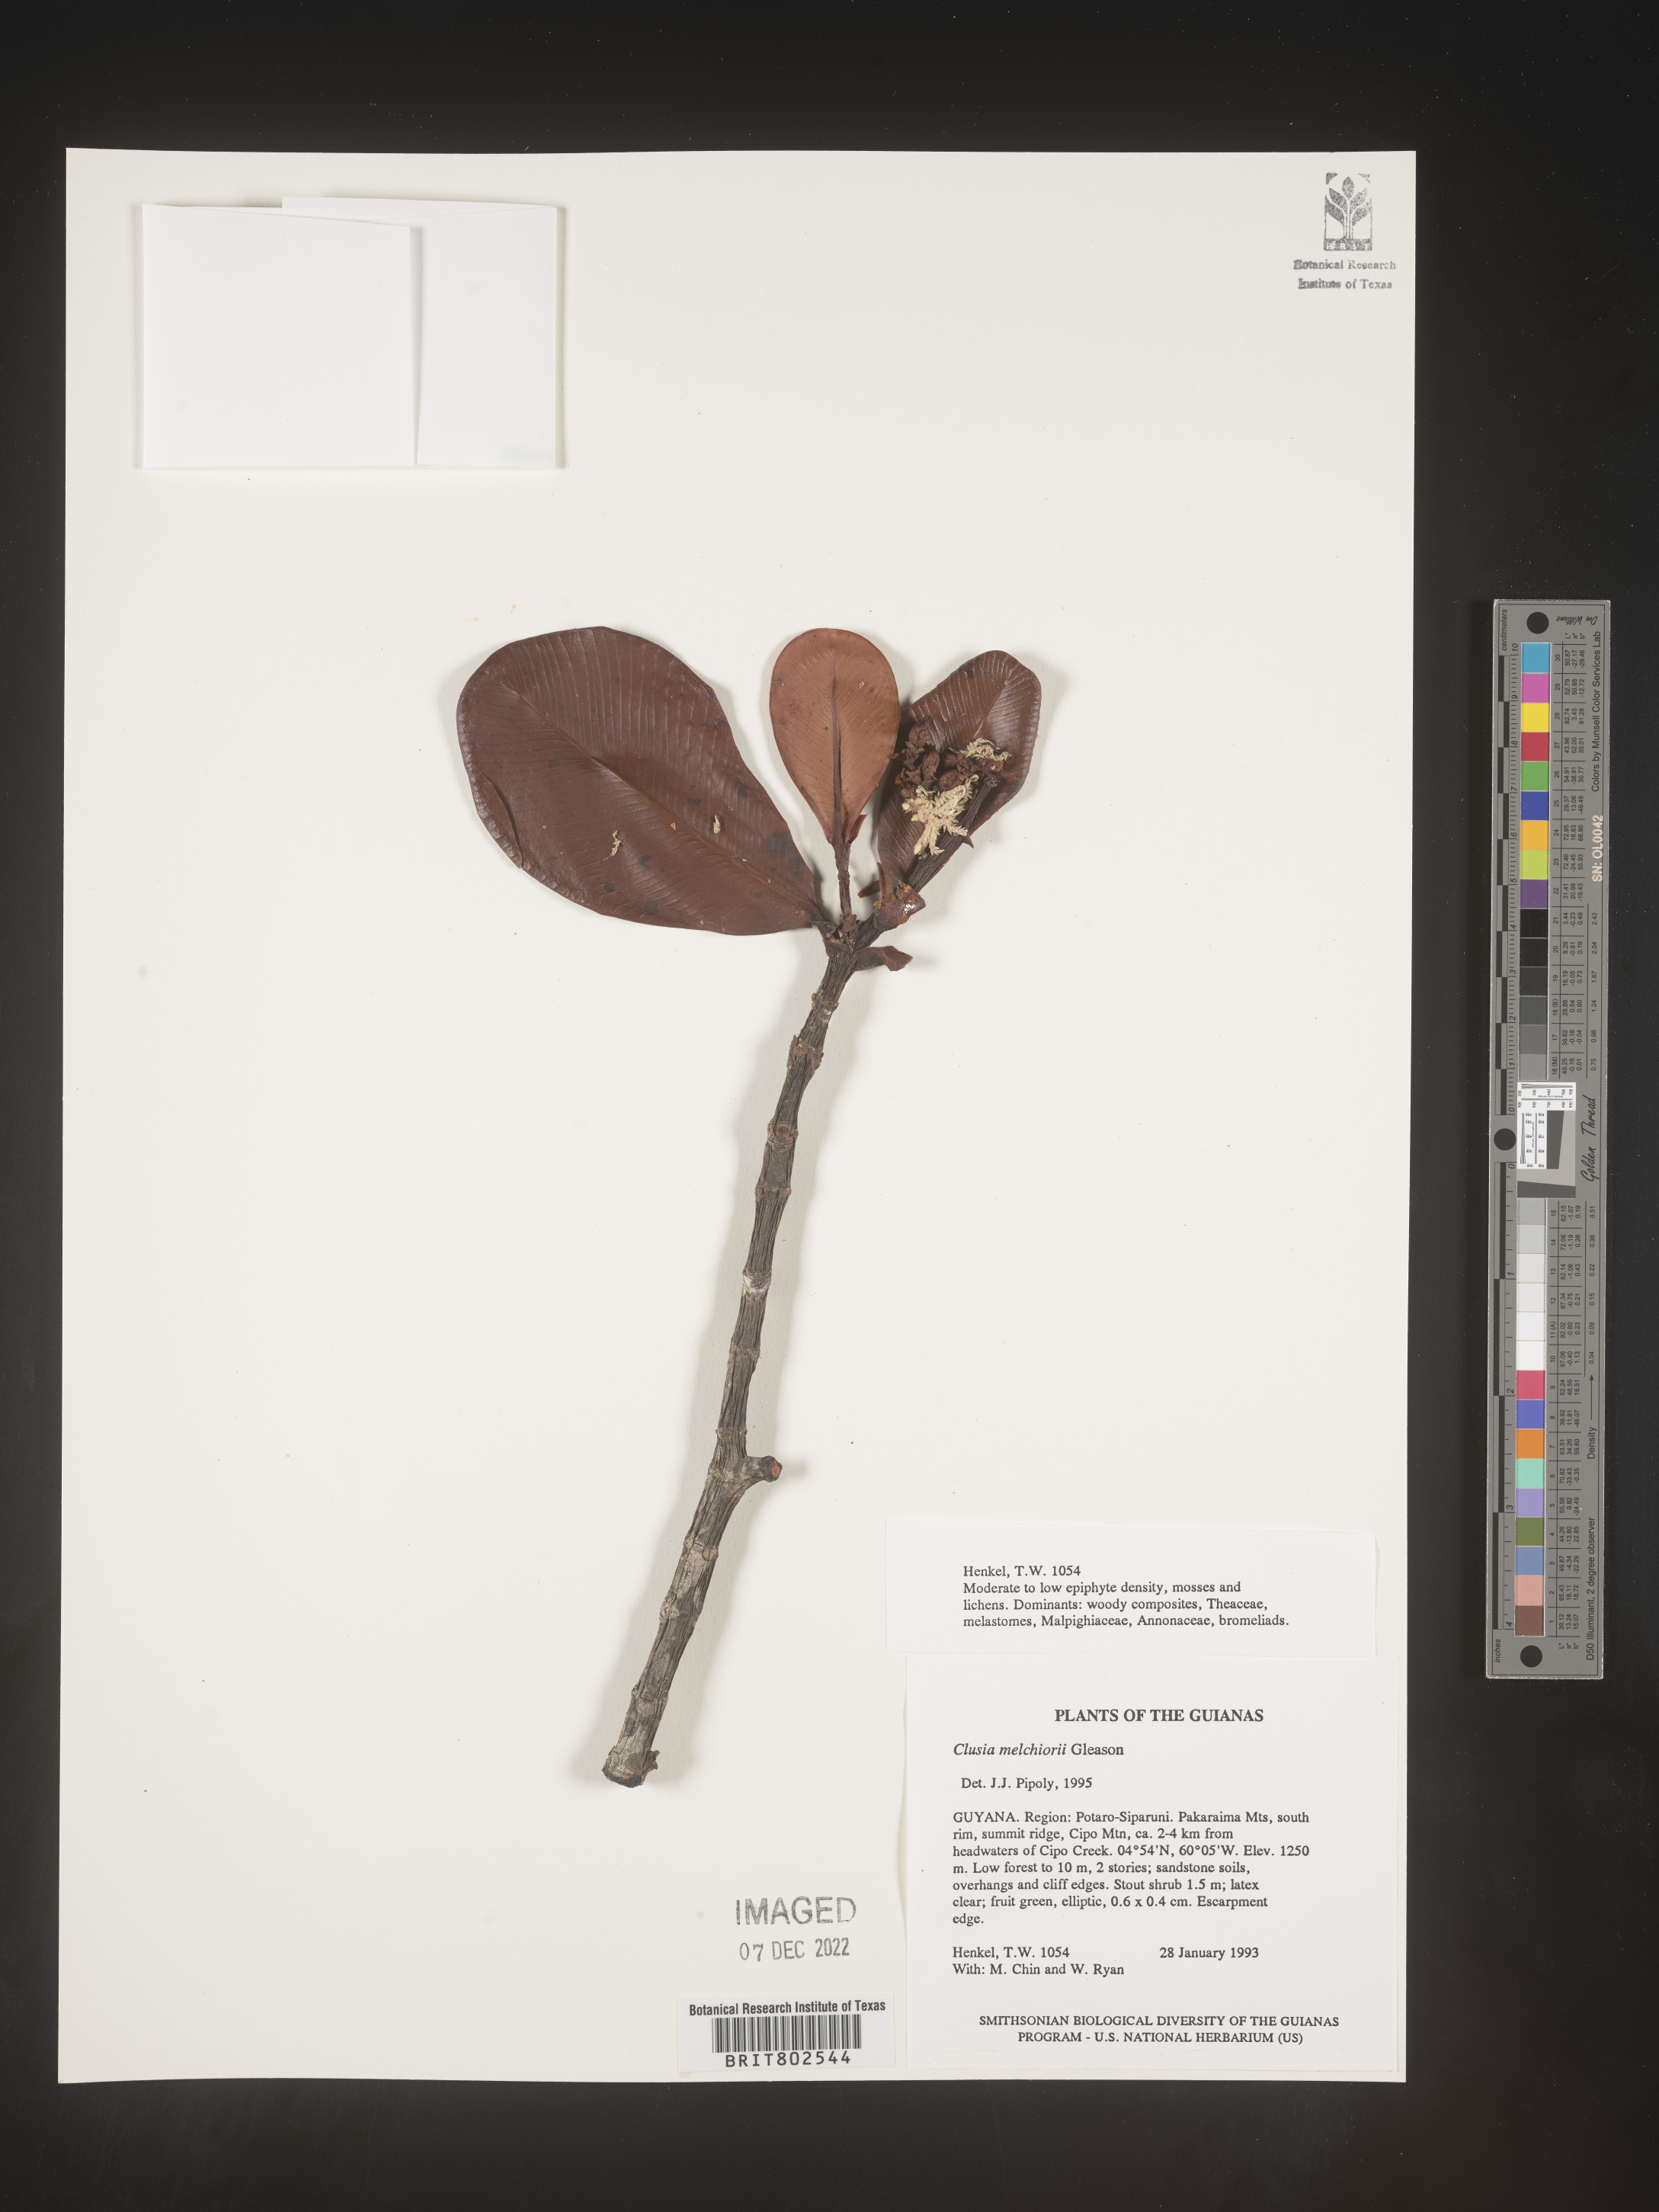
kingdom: Plantae
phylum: Tracheophyta
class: Magnoliopsida
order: Malpighiales
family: Clusiaceae
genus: Clusia
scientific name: Clusia melchiorii
